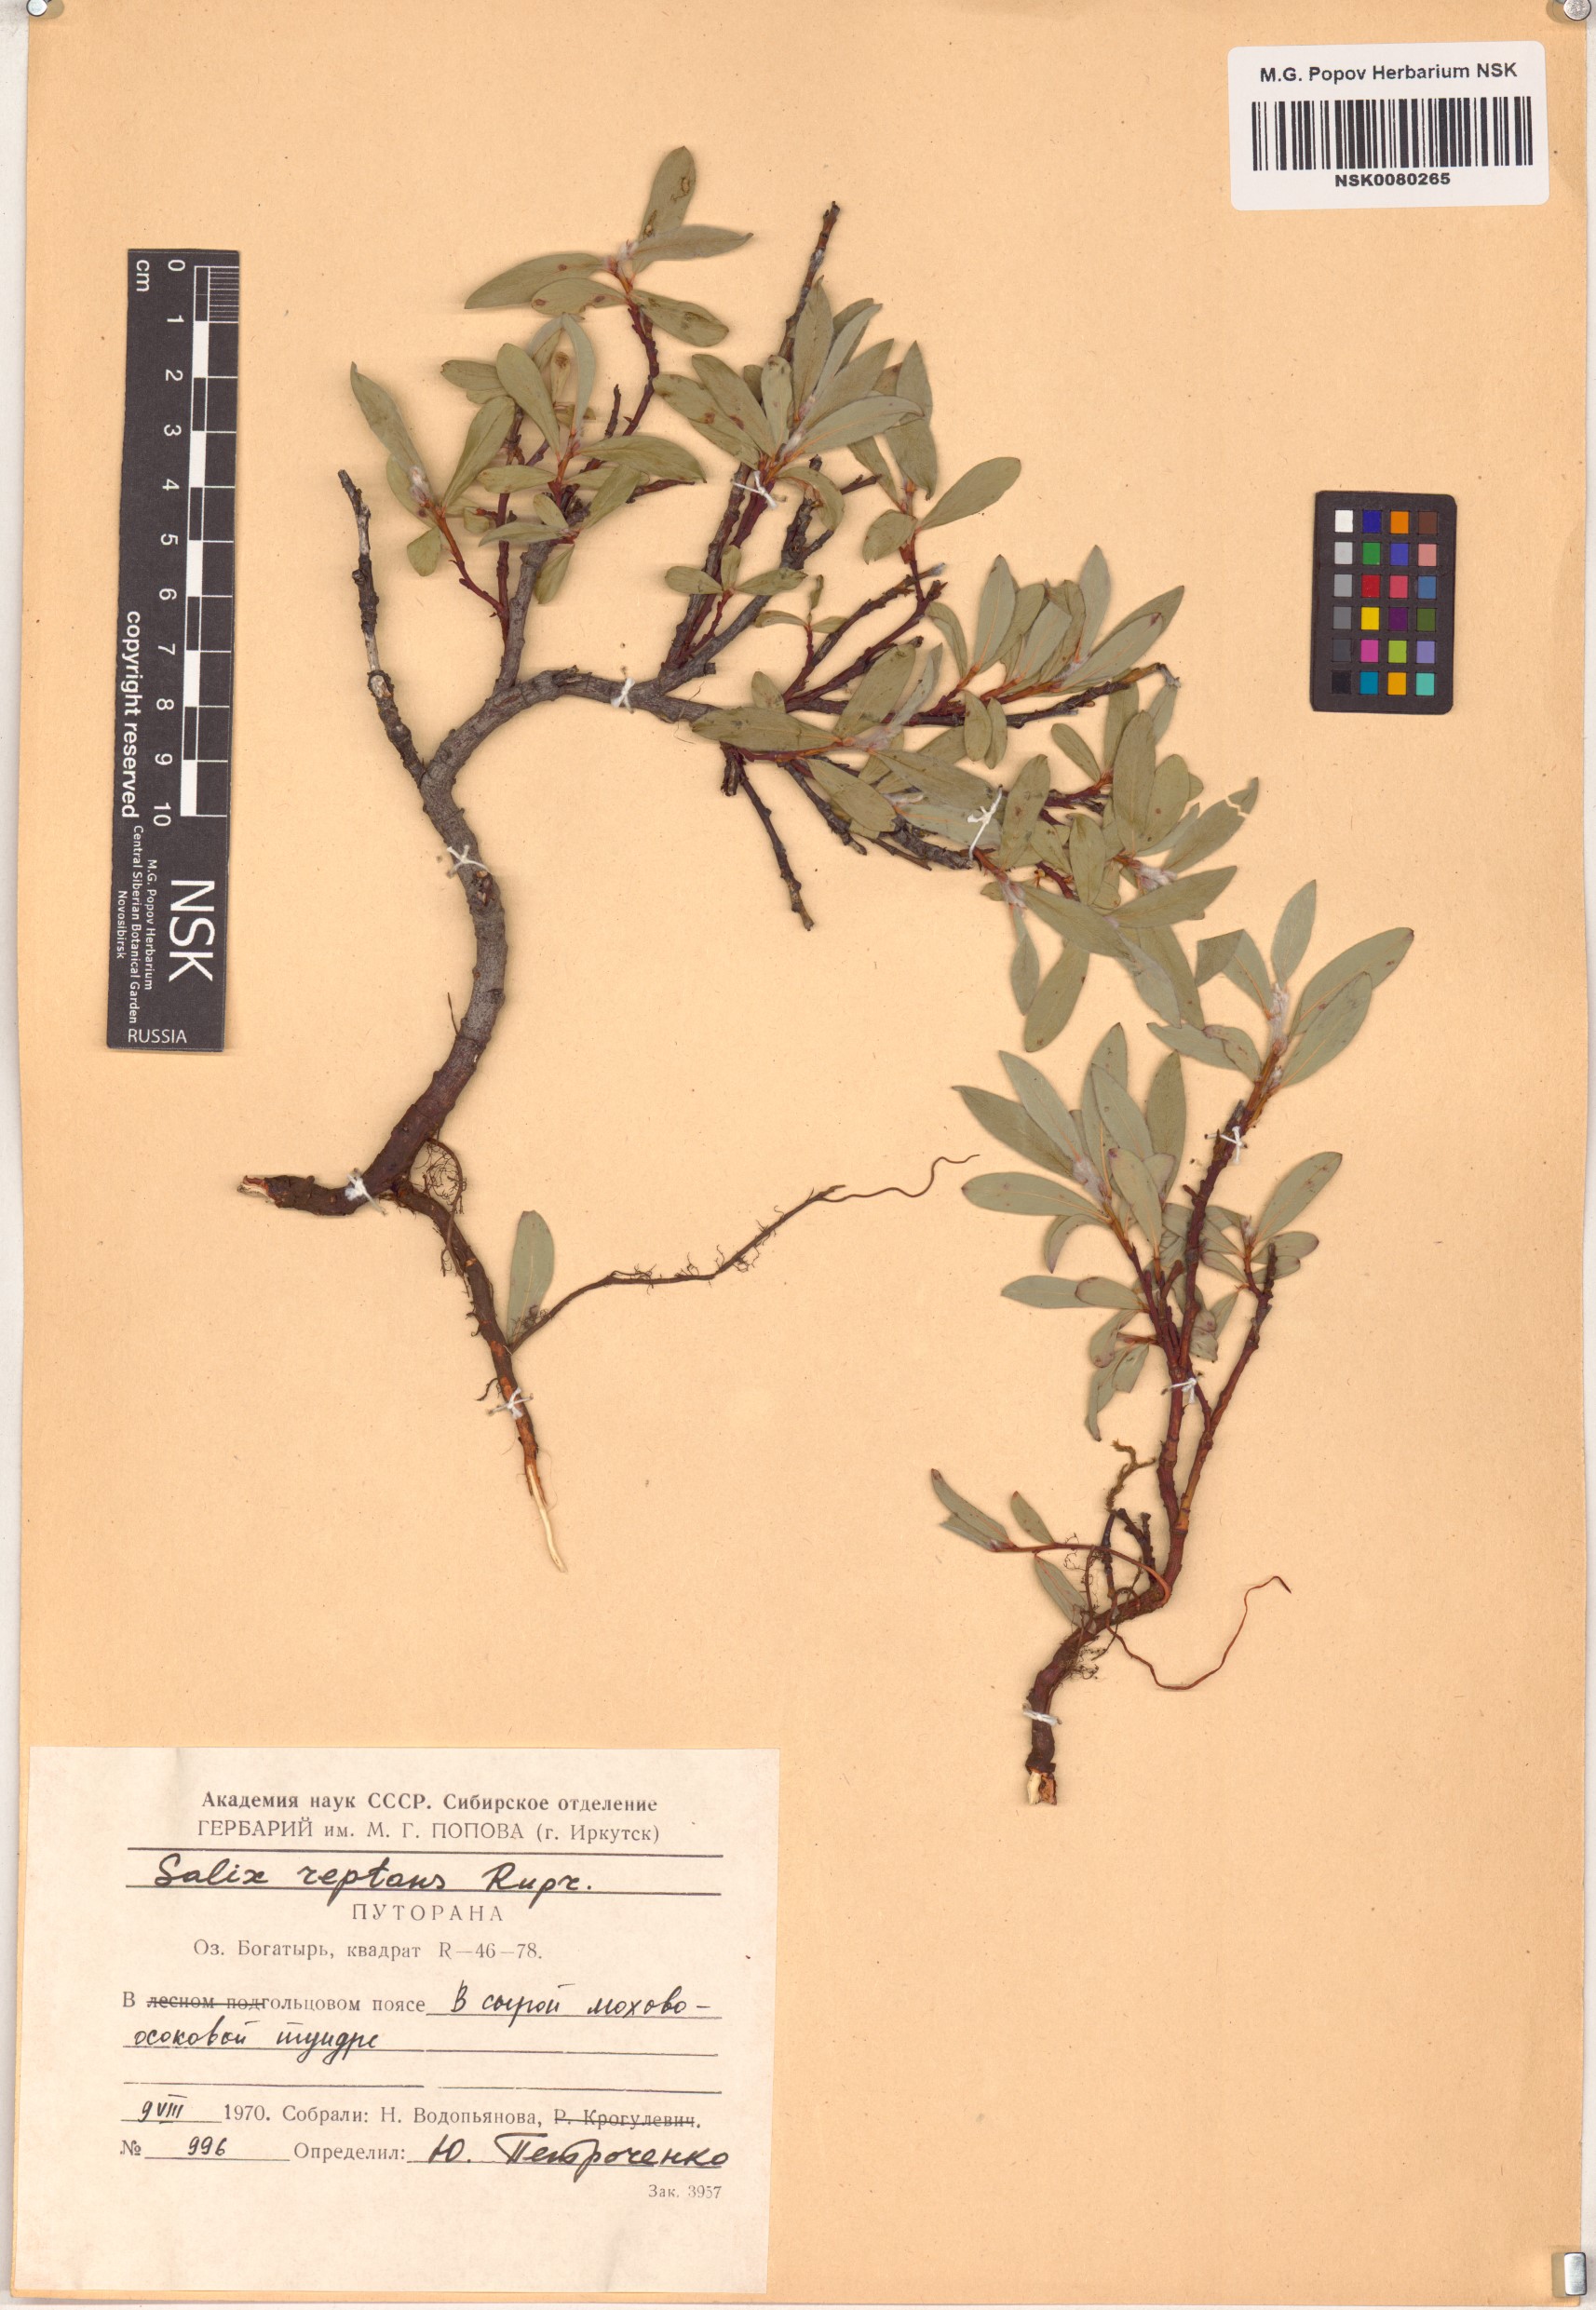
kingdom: Plantae
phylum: Tracheophyta
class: Magnoliopsida
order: Malpighiales
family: Salicaceae
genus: Salix
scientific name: Salix reptans
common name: Arctic creeping willow
